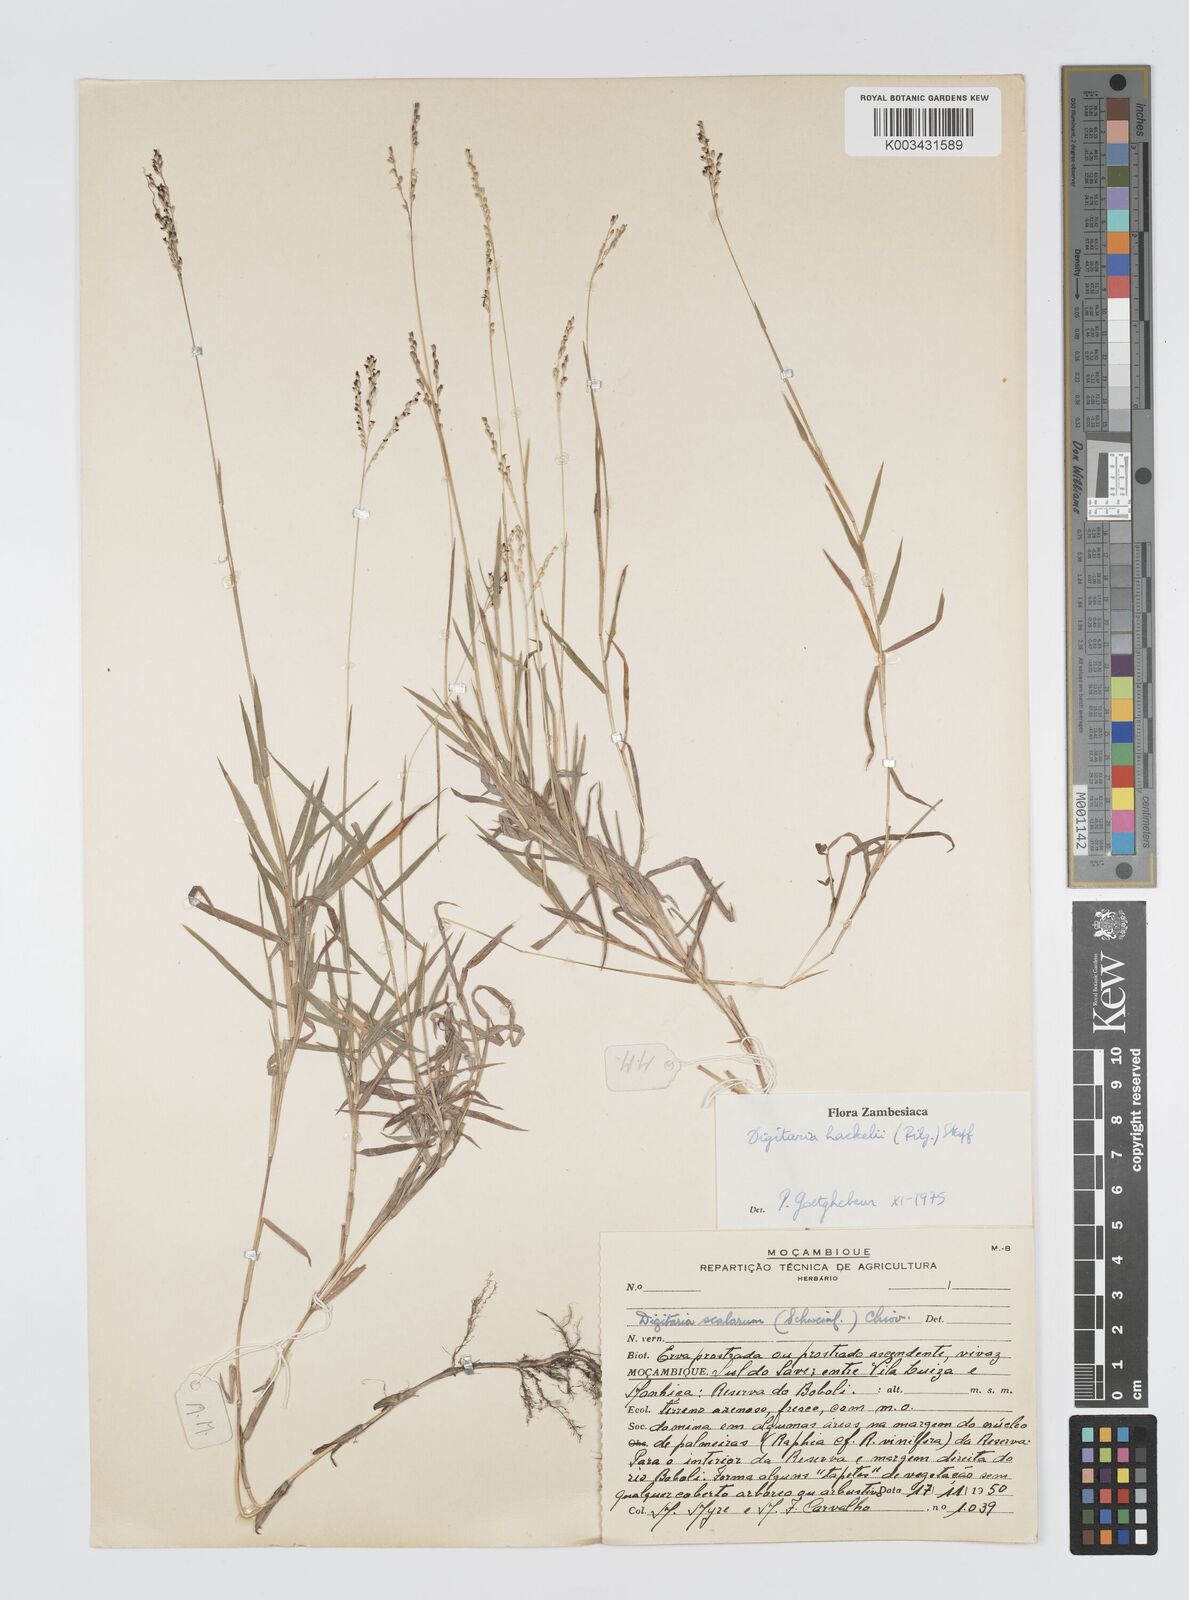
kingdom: Plantae
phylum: Tracheophyta
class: Liliopsida
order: Poales
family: Poaceae
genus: Digitaria
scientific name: Digitaria abyssinica
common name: African couchgrass
